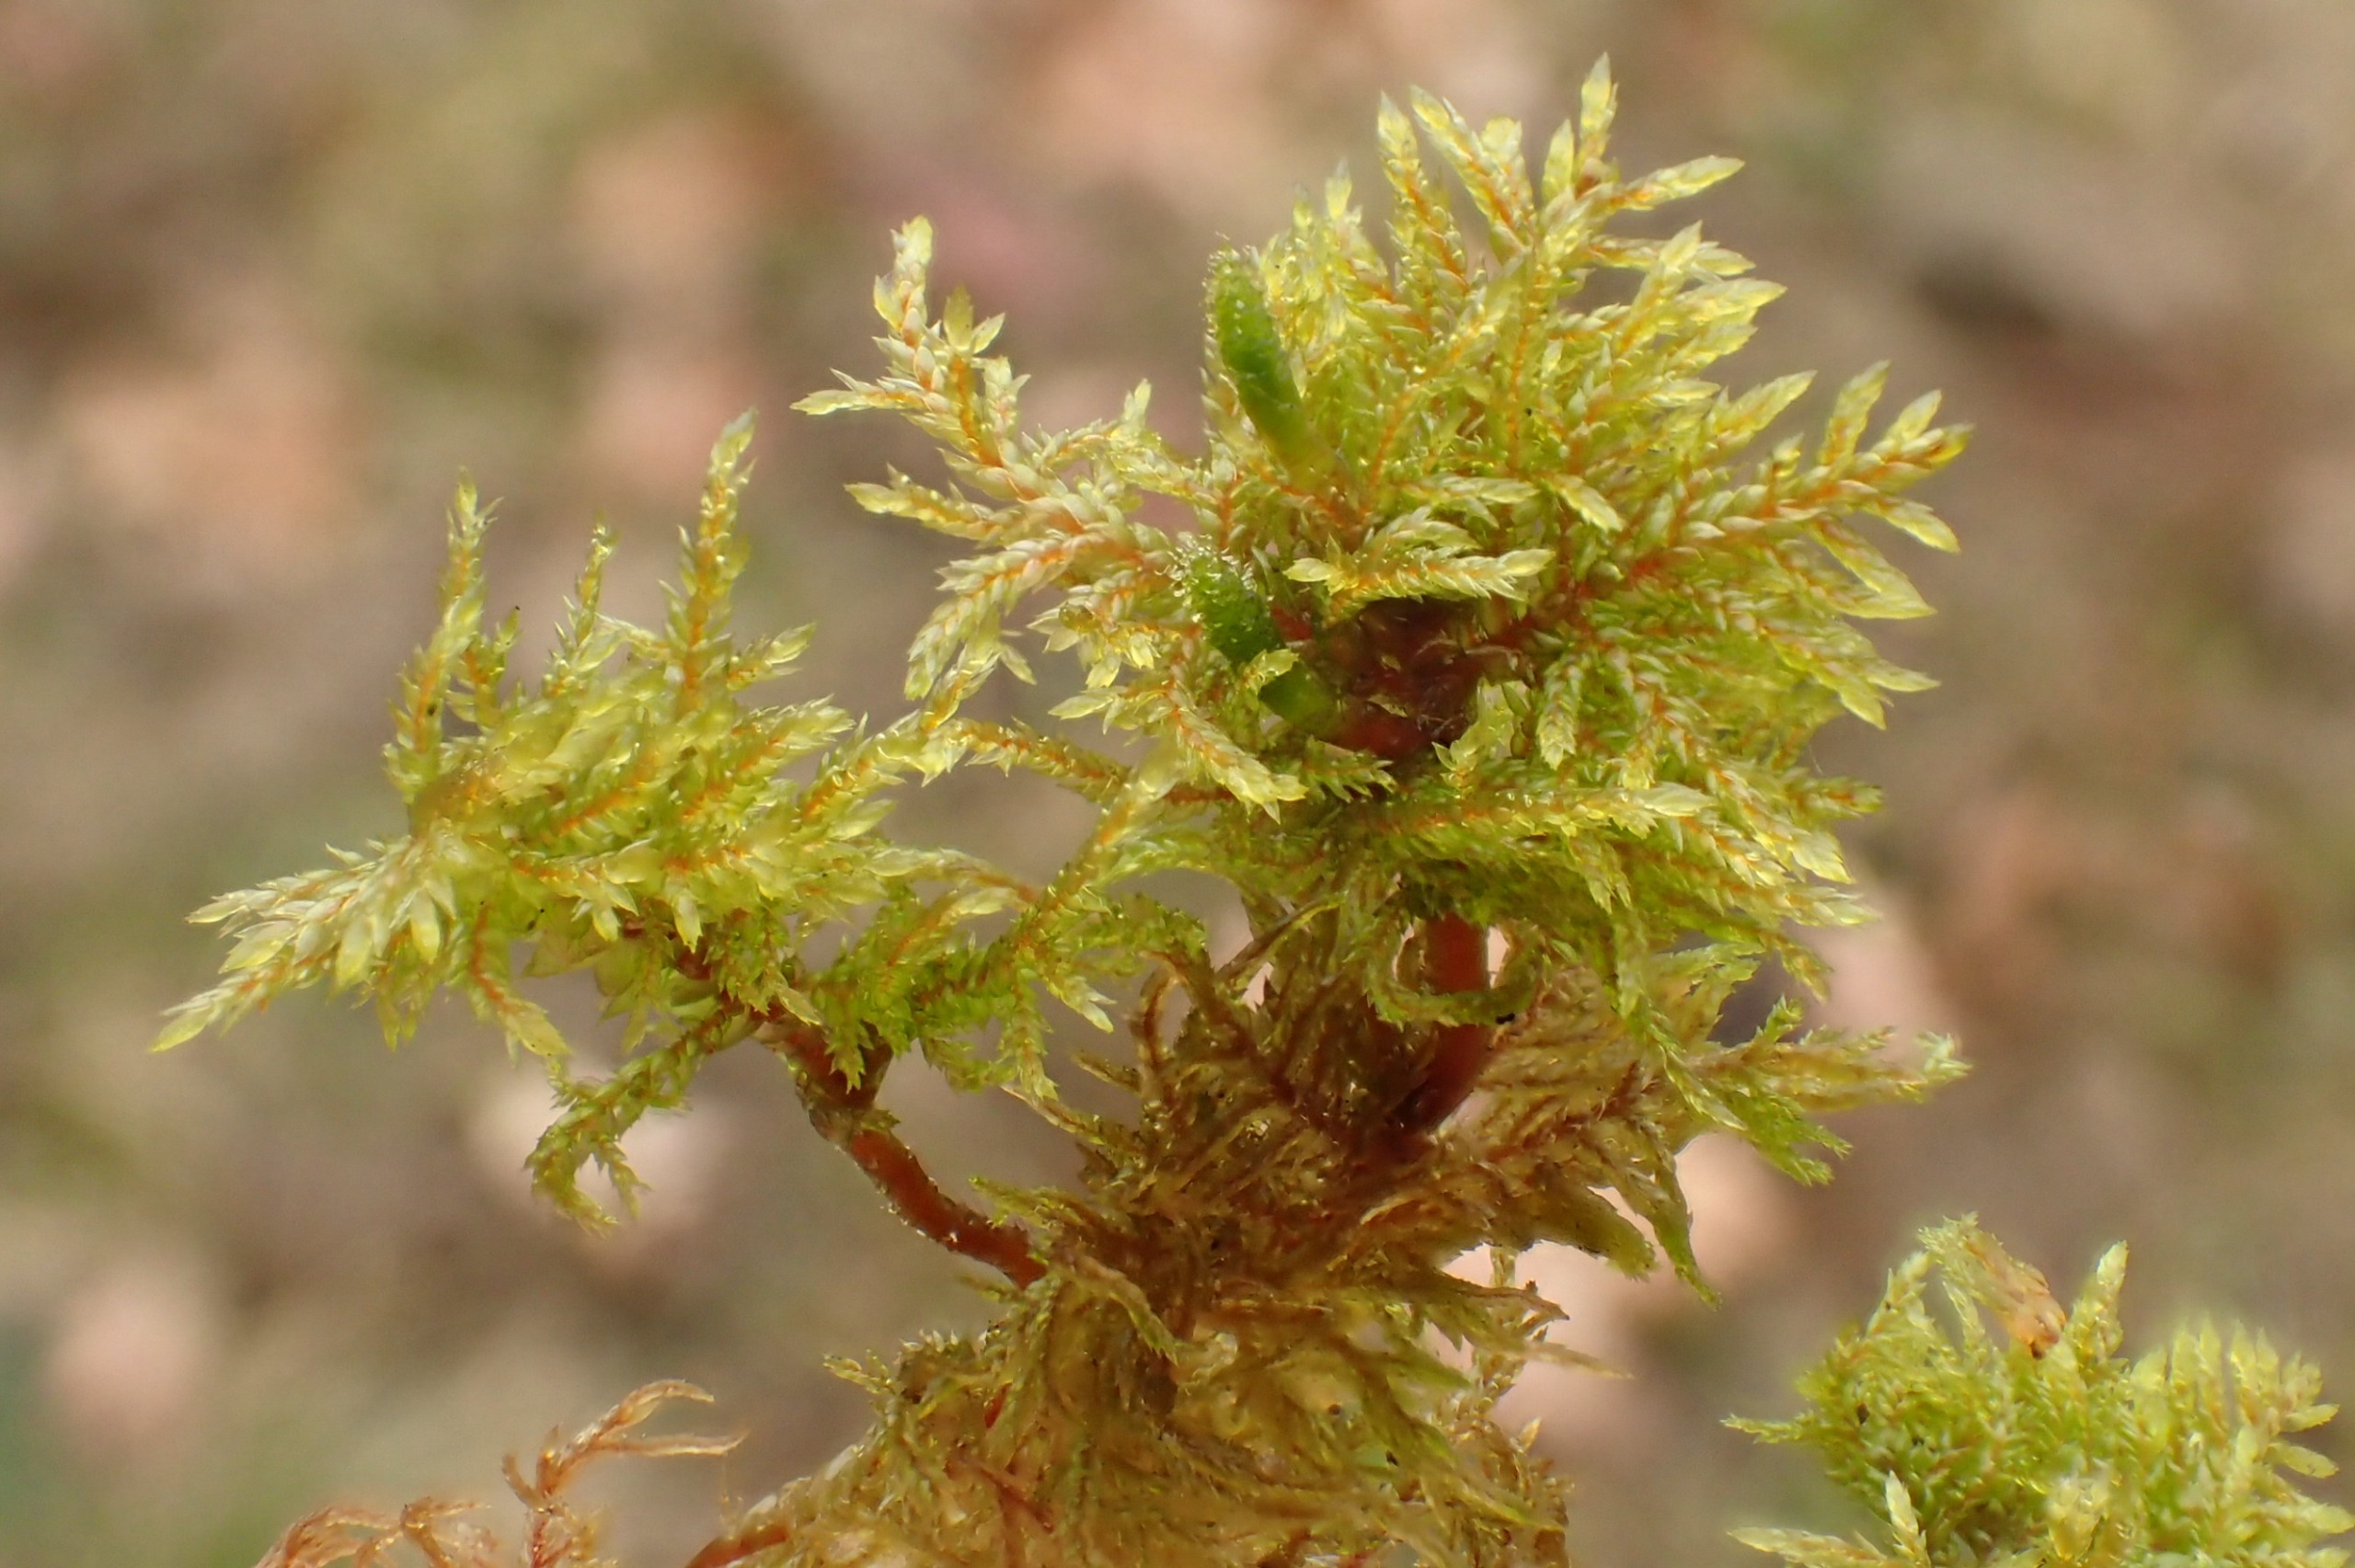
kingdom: Plantae
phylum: Bryophyta
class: Bryopsida
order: Hypnales
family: Hylocomiaceae
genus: Hylocomium
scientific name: Hylocomium splendens
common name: Almindelig etagemos
